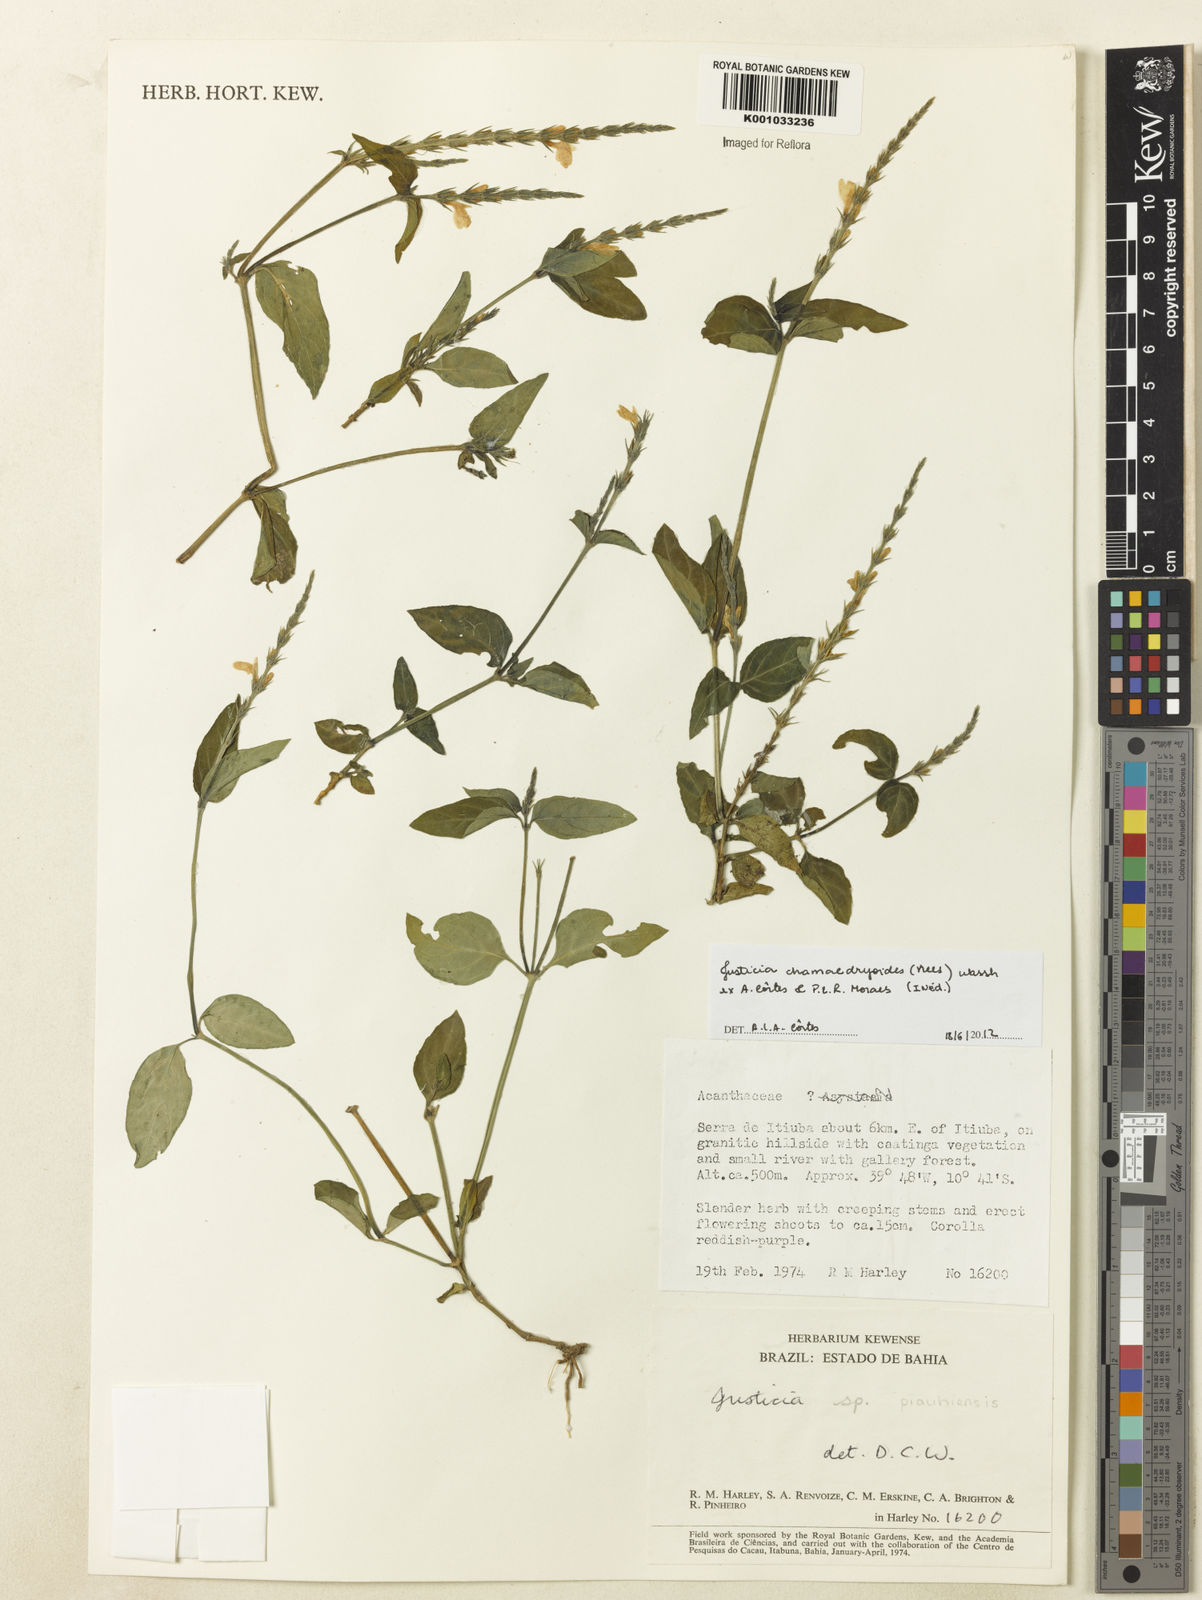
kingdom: Plantae
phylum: Tracheophyta
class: Magnoliopsida
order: Lamiales
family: Acanthaceae
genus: Justicia
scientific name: Justicia
